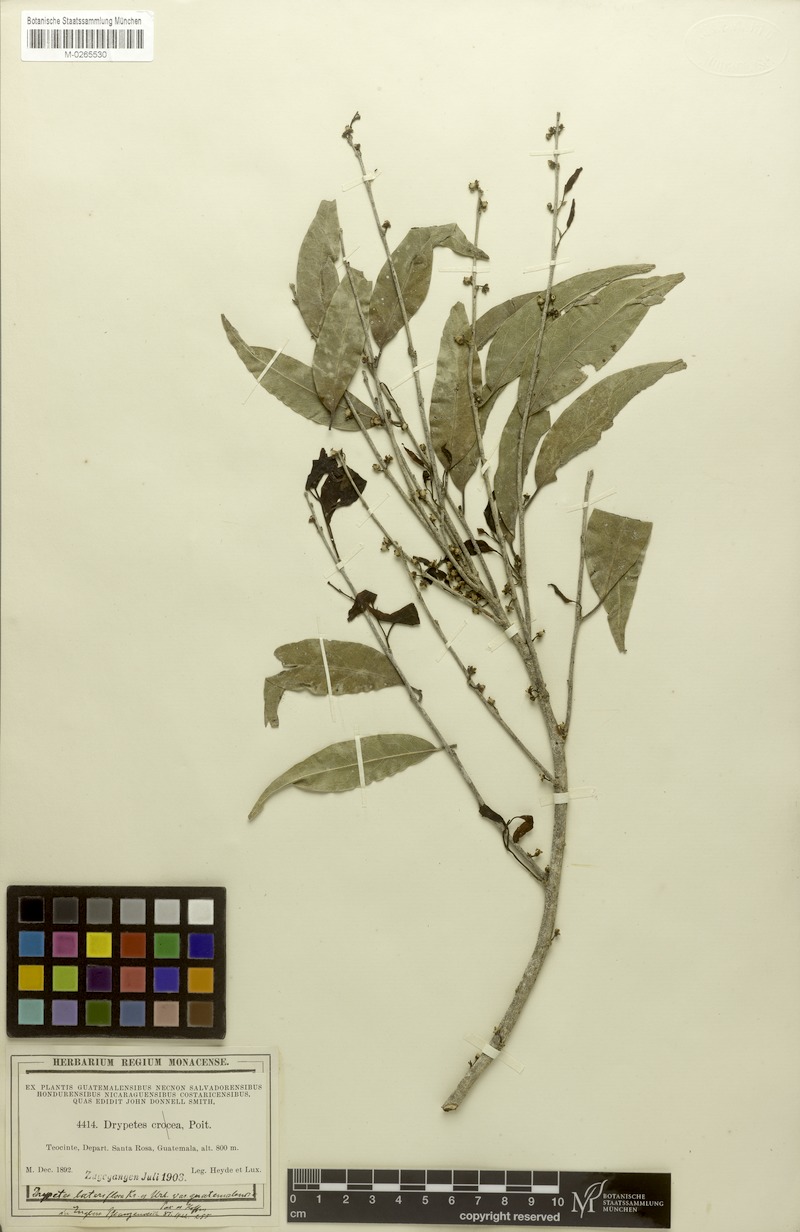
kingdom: Plantae
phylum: Tracheophyta
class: Magnoliopsida
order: Malpighiales
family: Putranjivaceae
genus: Drypetes
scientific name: Drypetes lateriflora
